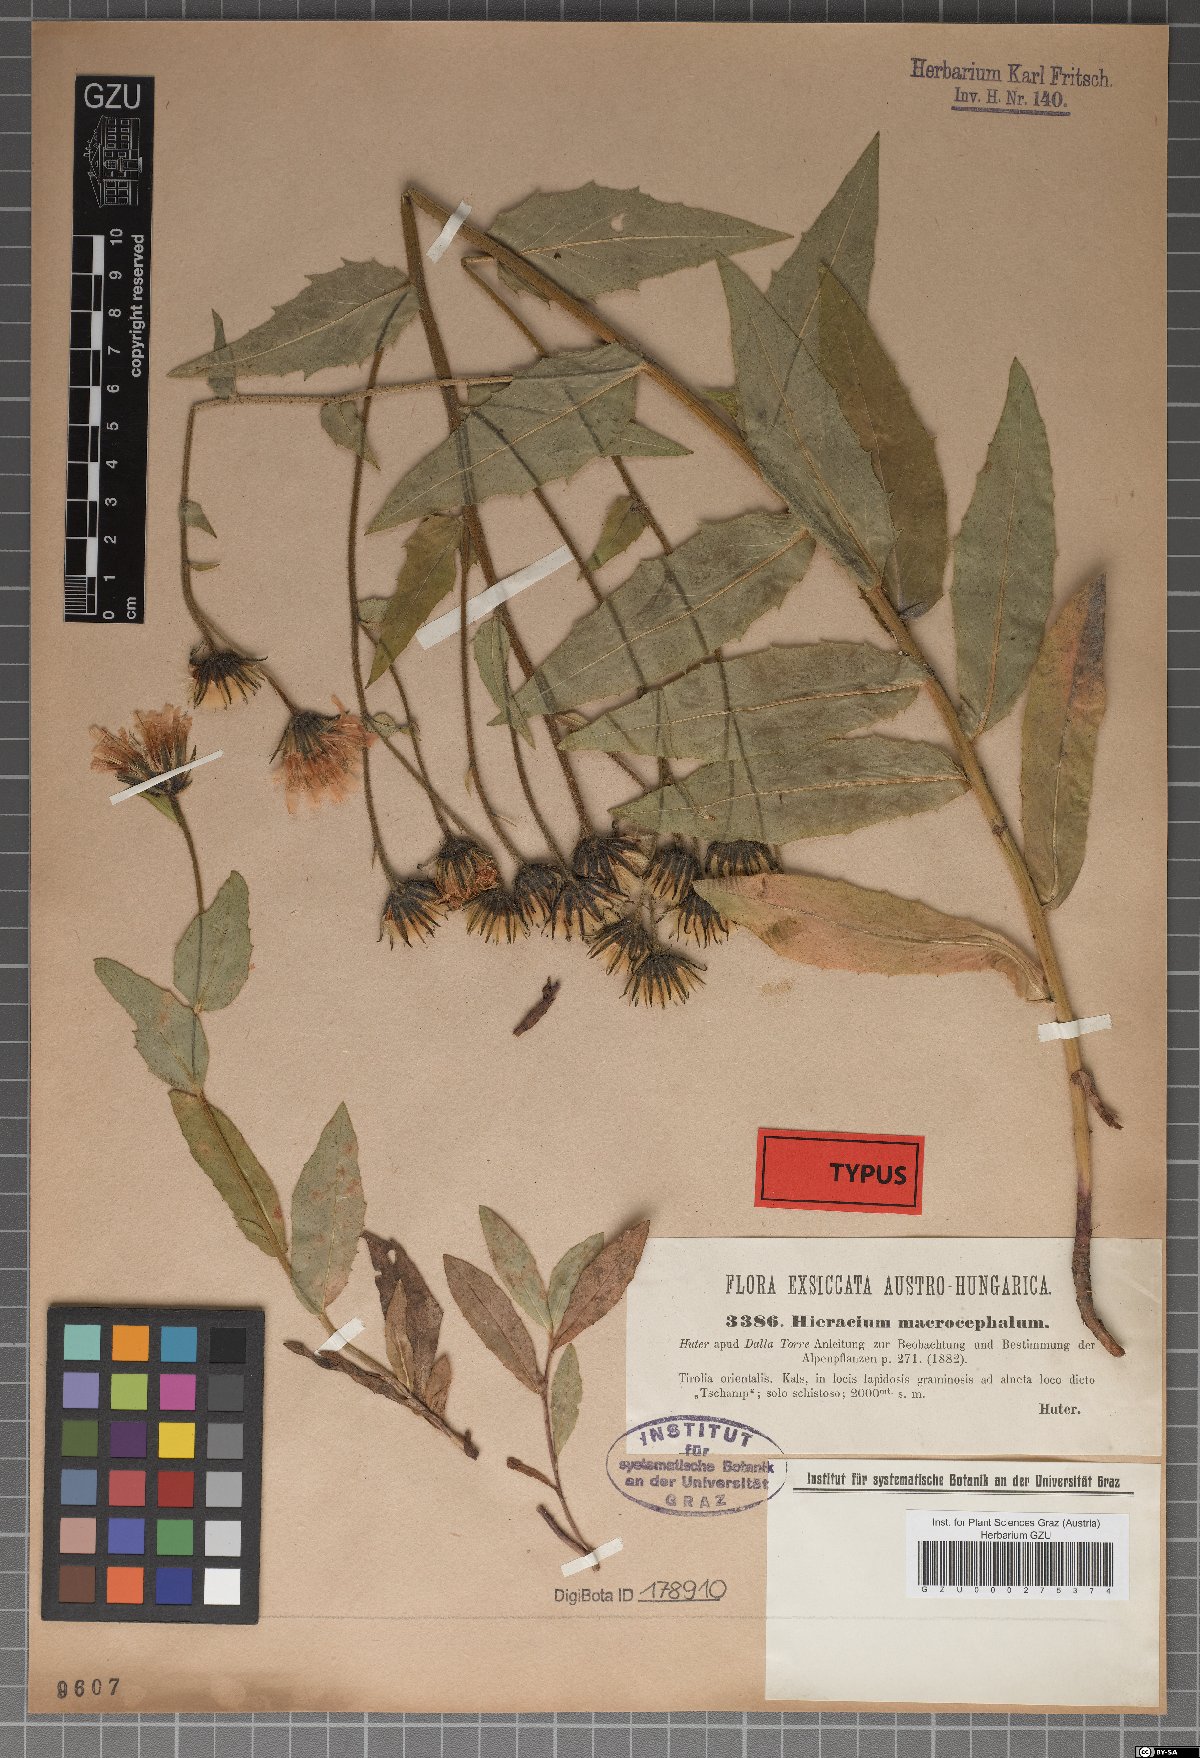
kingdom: Plantae
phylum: Tracheophyta
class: Magnoliopsida
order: Asterales
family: Asteraceae
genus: Hieracium
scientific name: Hieracium macrocephalum
